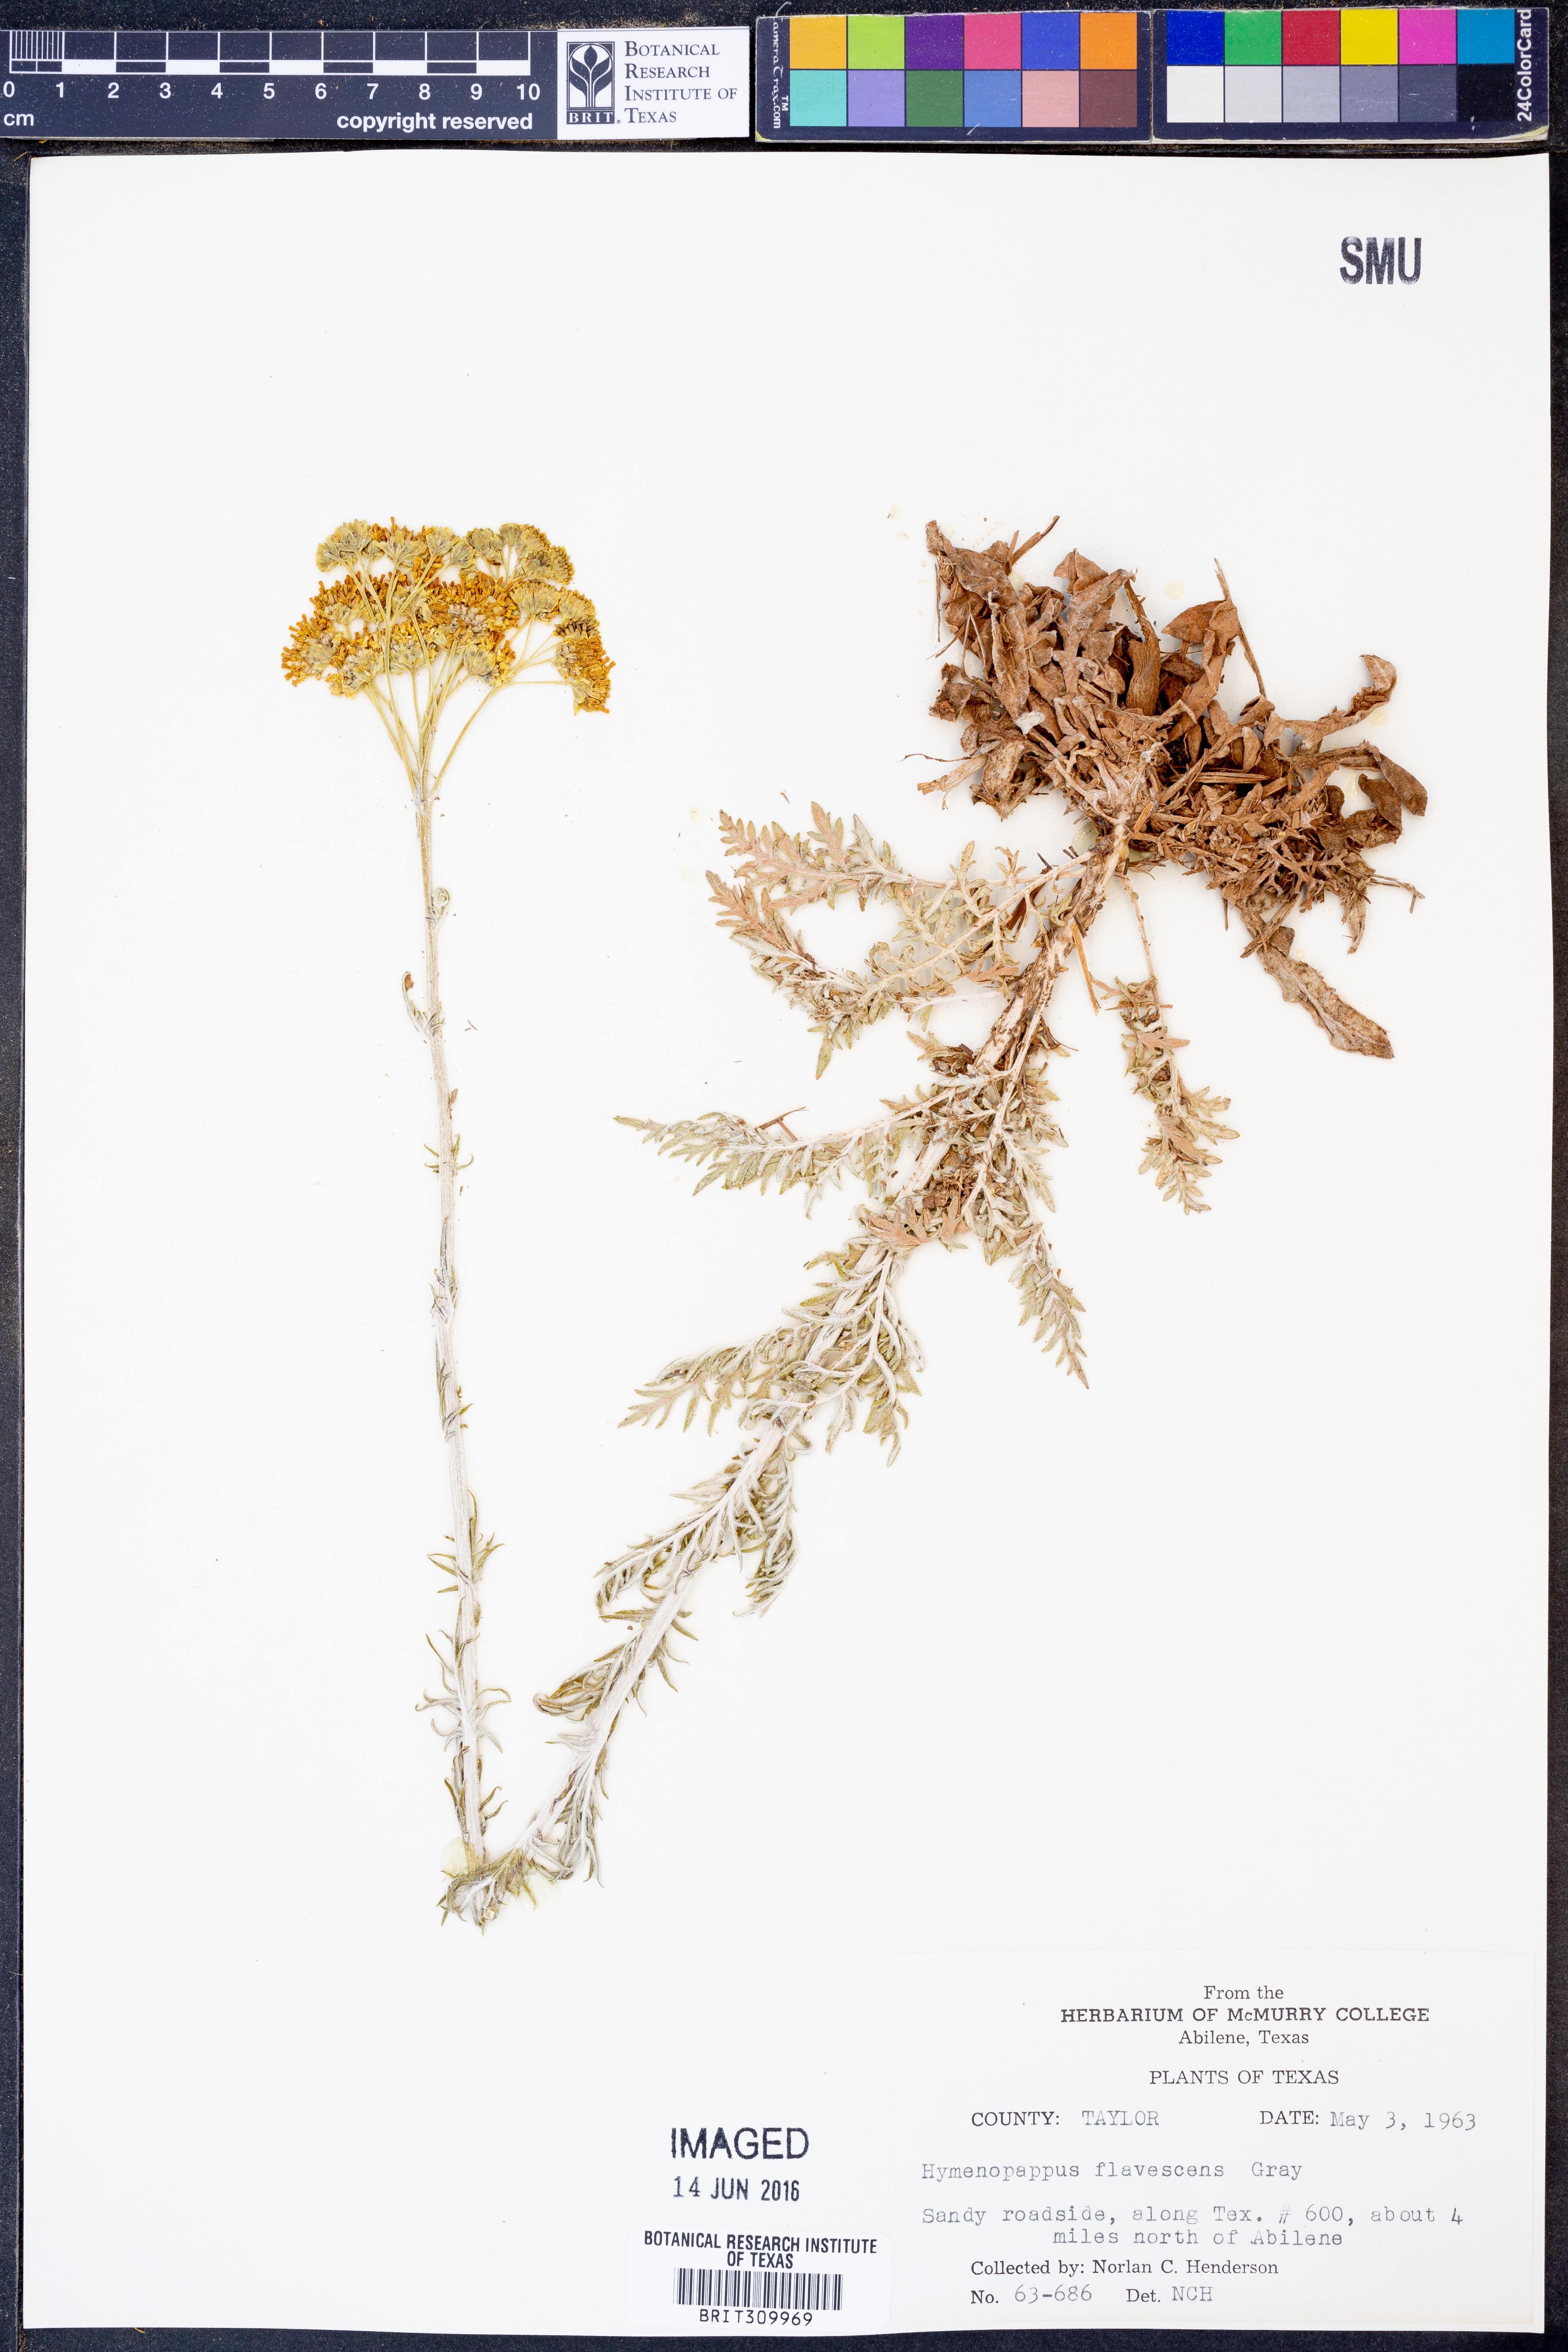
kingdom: Plantae
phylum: Tracheophyta
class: Magnoliopsida
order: Asterales
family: Asteraceae
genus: Hymenopappus
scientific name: Hymenopappus flavescens
